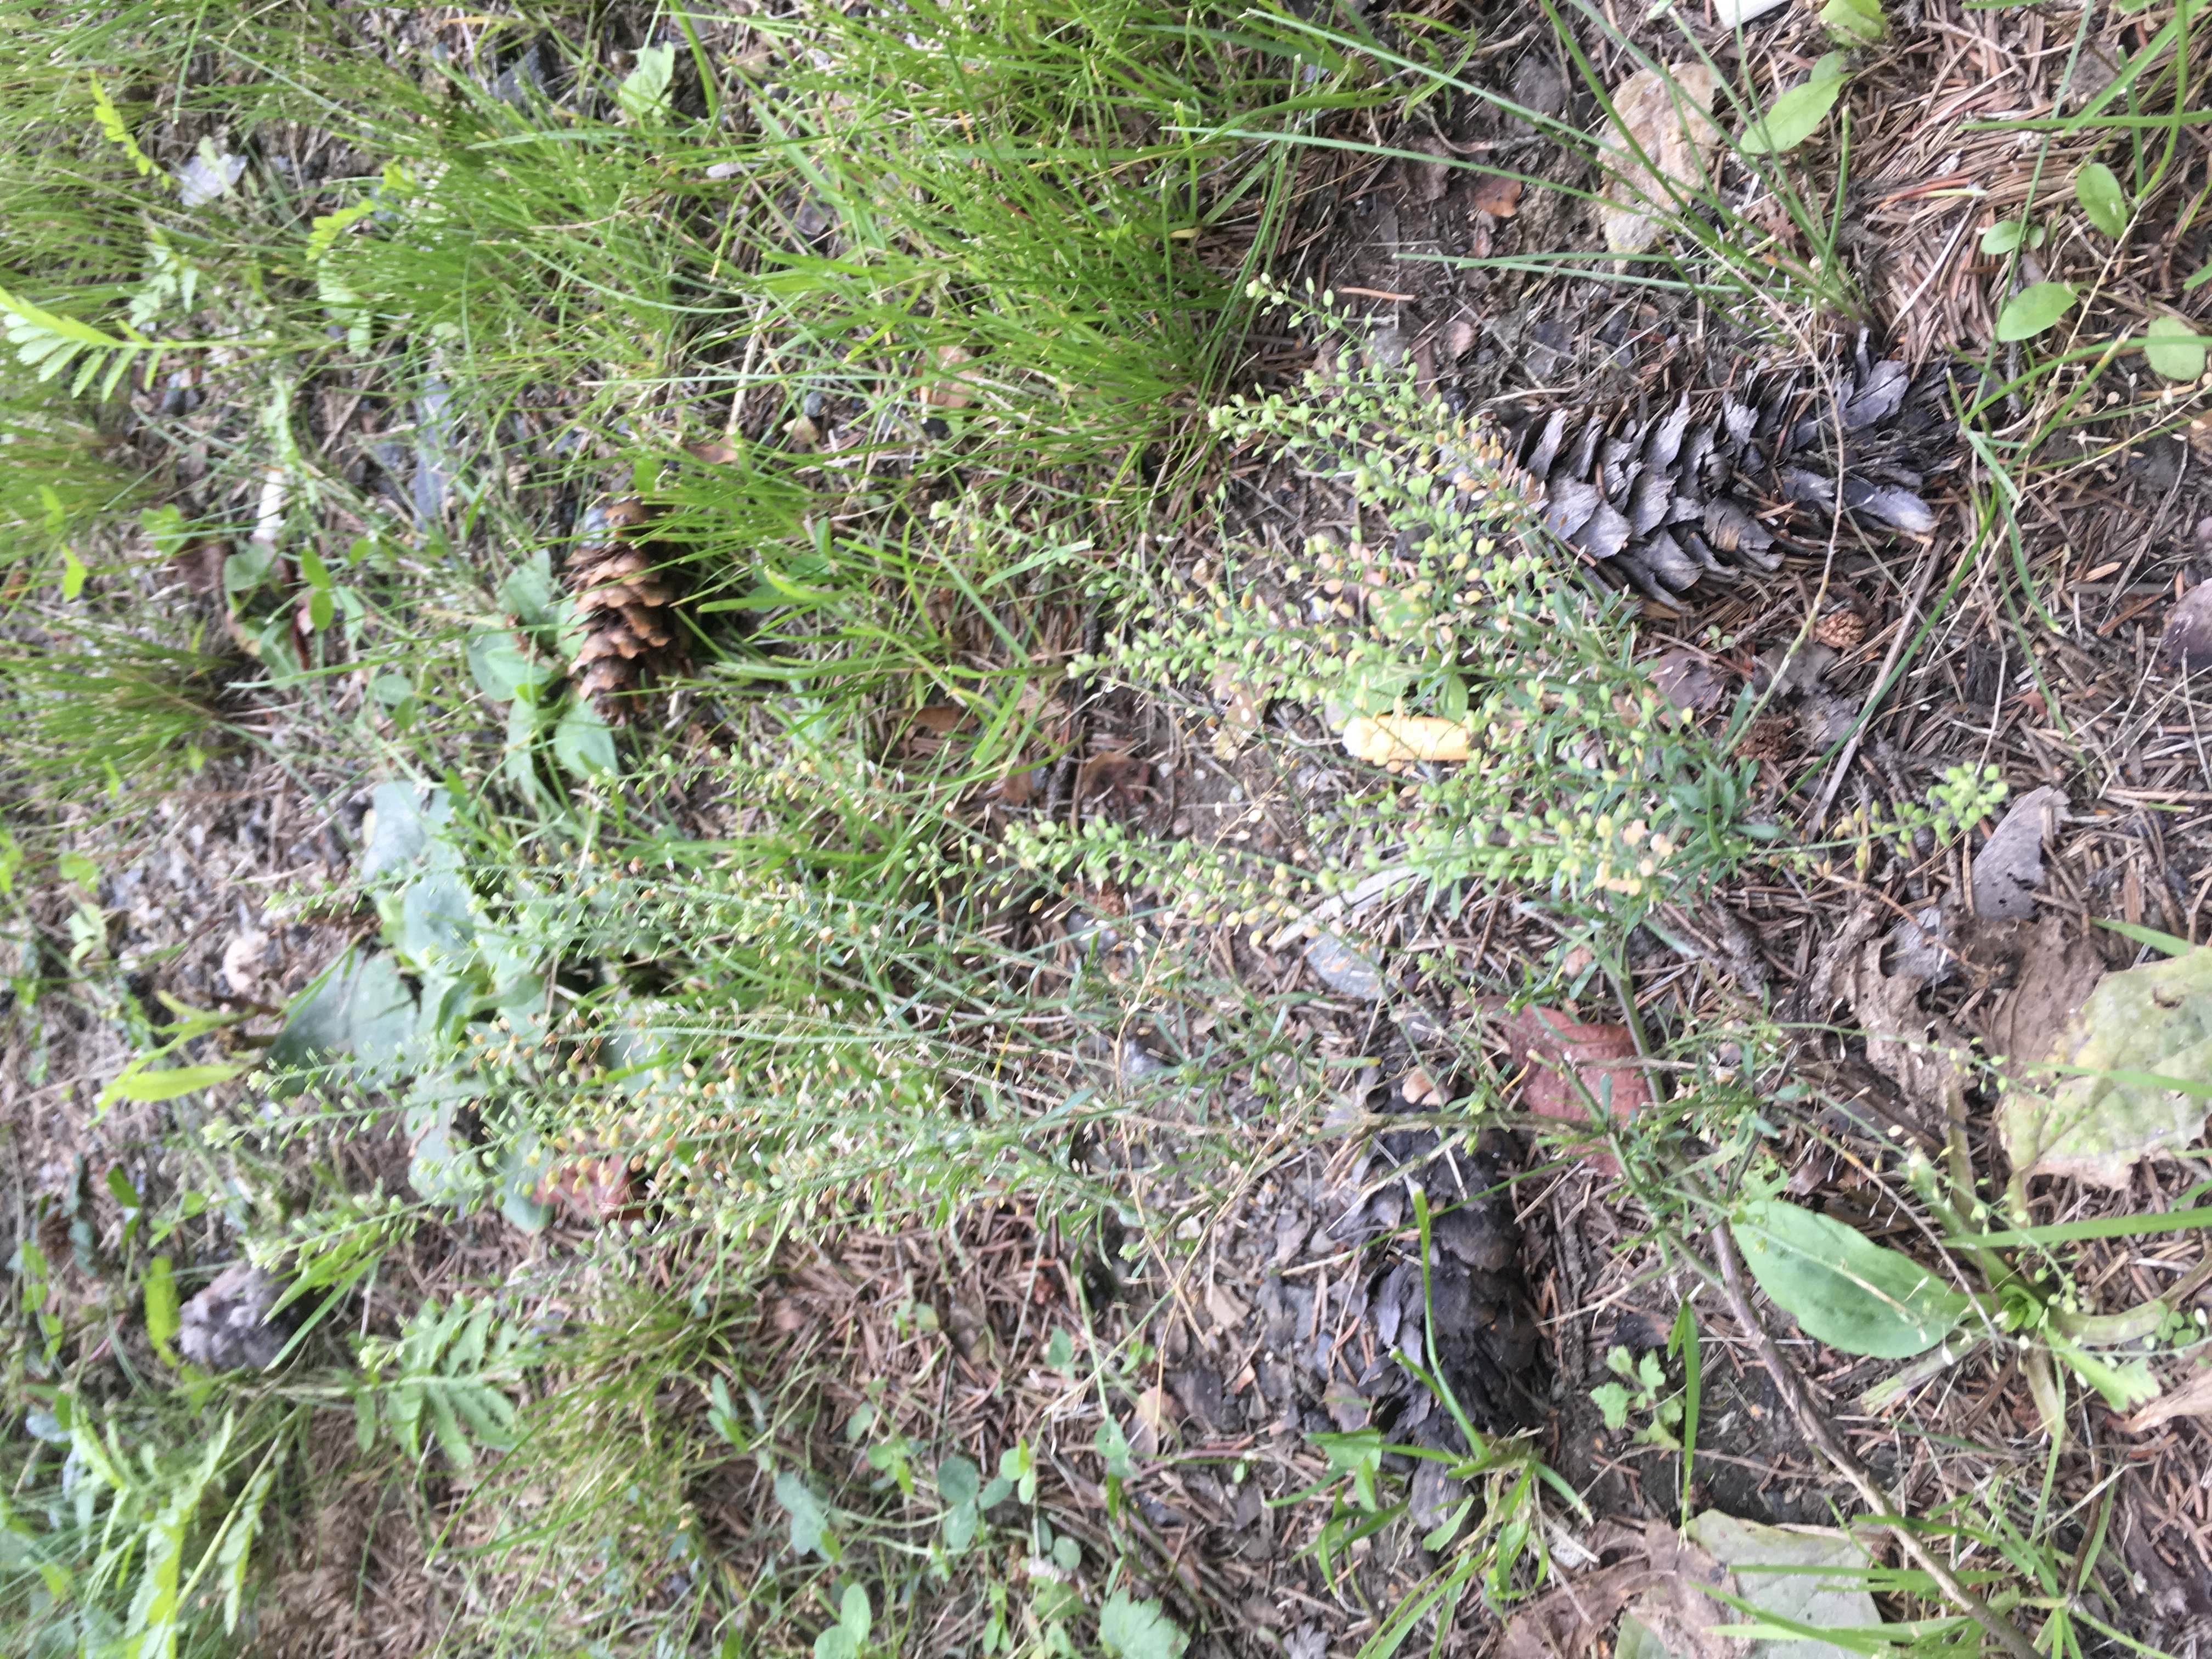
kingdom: Plantae
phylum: Tracheophyta
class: Magnoliopsida
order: Brassicales
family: Brassicaceae
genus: Lepidium
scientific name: Lepidium ruderale
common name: gáhttakrássa
